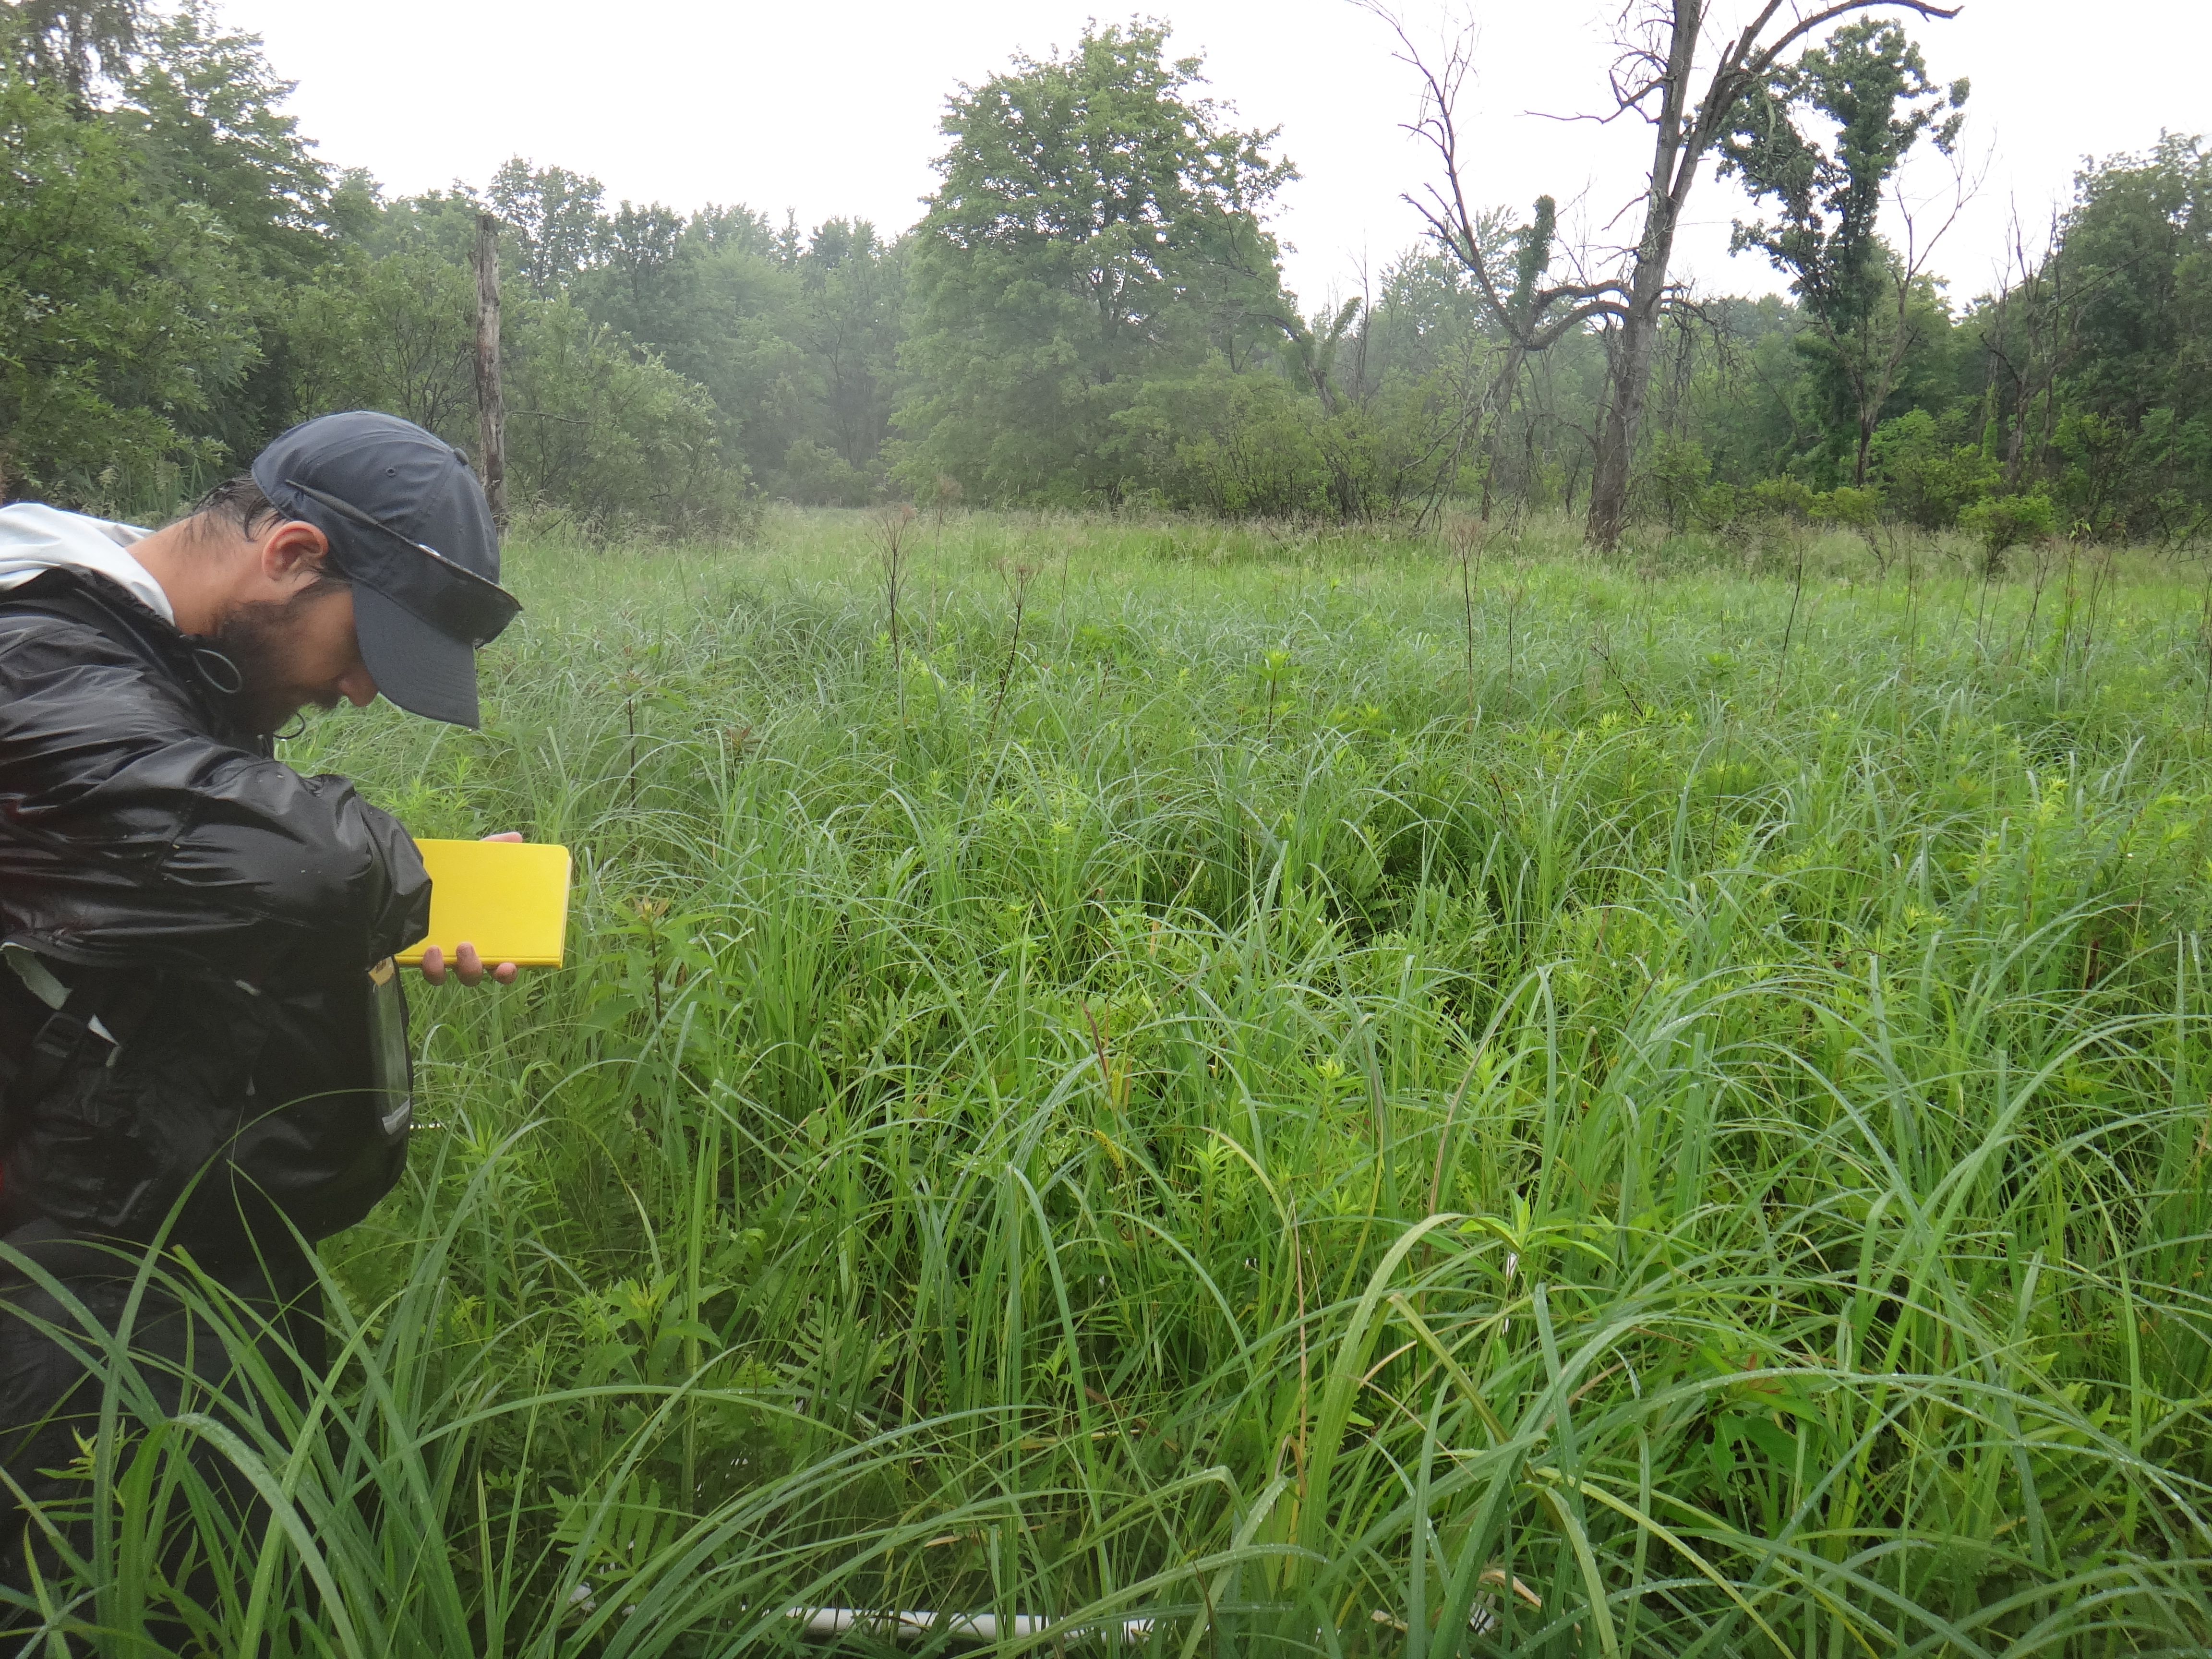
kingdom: Plantae
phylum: Tracheophyta
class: Magnoliopsida
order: Lamiales
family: Lamiaceae
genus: Lycopus
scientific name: Lycopus uniflorus
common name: Northern bugleweed
